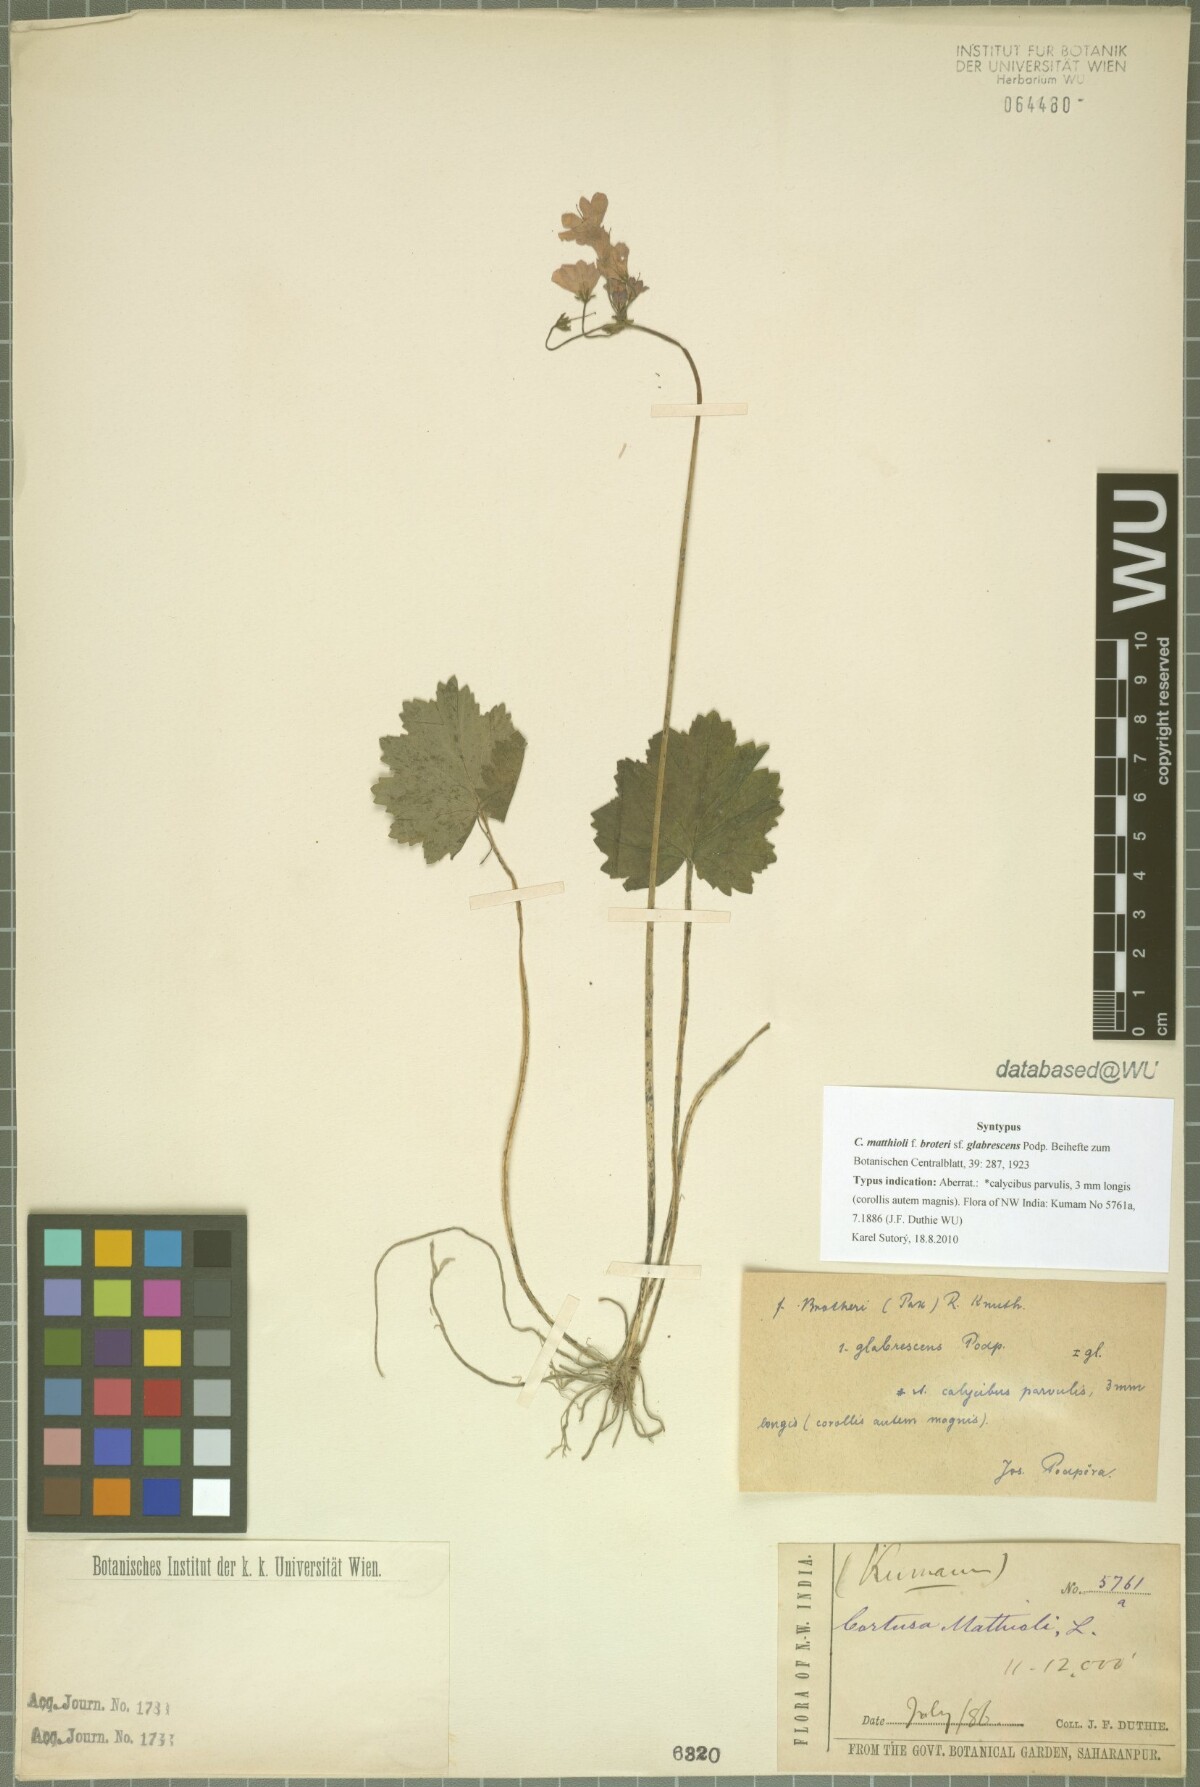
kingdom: Plantae
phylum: Tracheophyta
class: Magnoliopsida
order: Ericales
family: Primulaceae
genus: Primula
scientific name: Primula matthioli
